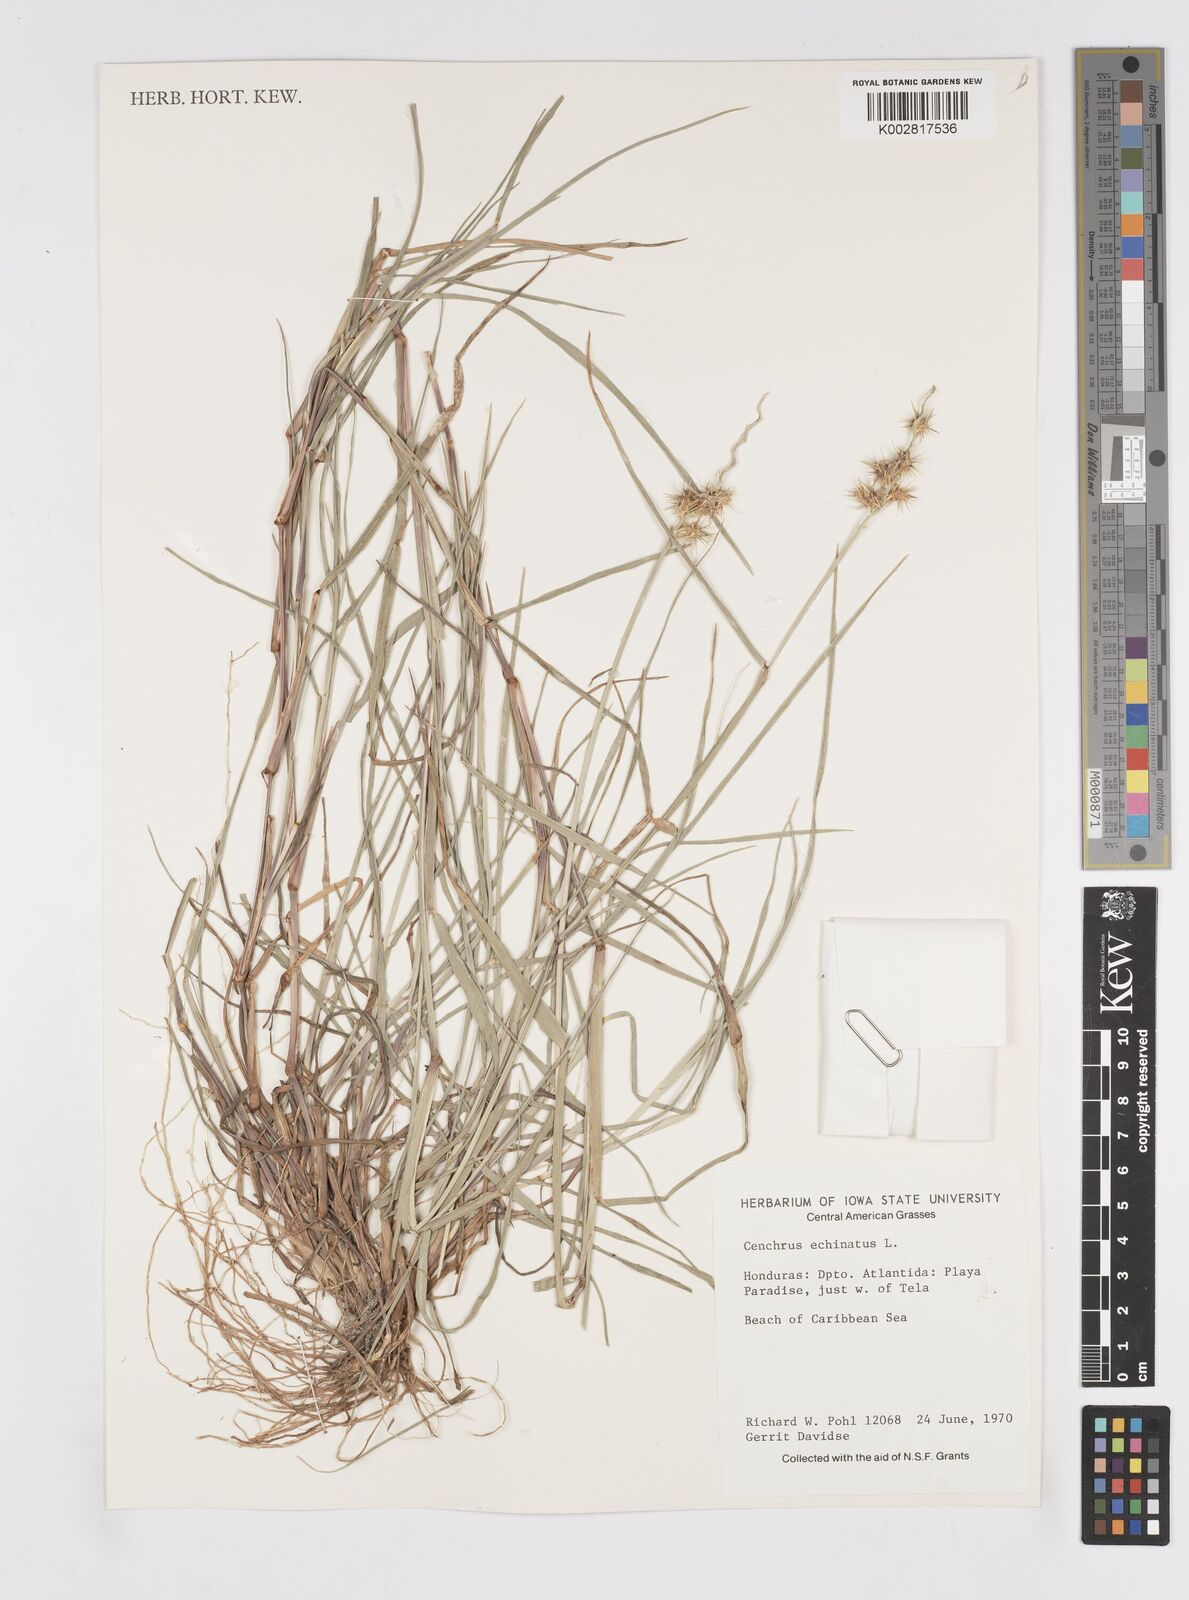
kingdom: Plantae
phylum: Tracheophyta
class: Liliopsida
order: Poales
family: Poaceae
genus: Cenchrus
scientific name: Cenchrus
